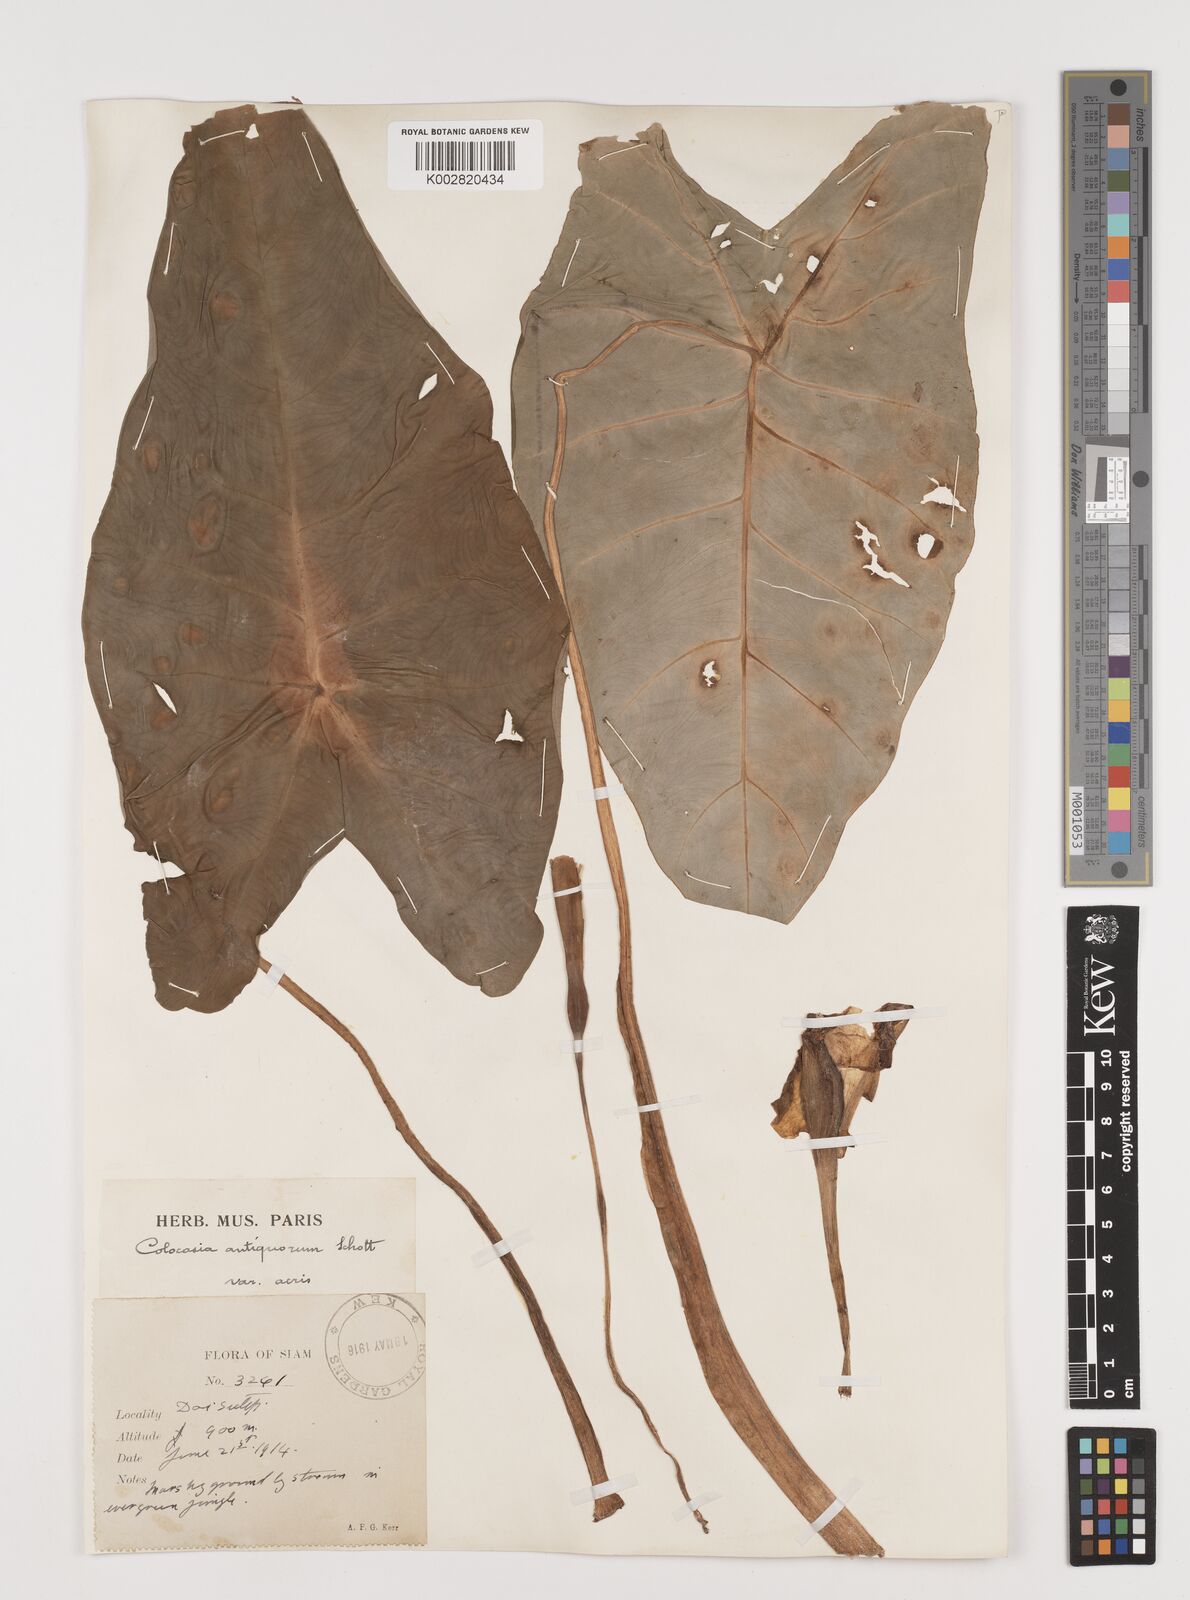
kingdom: Plantae
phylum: Tracheophyta
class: Liliopsida
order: Alismatales
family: Araceae
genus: Colocasia
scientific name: Colocasia esculenta
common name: Taro
